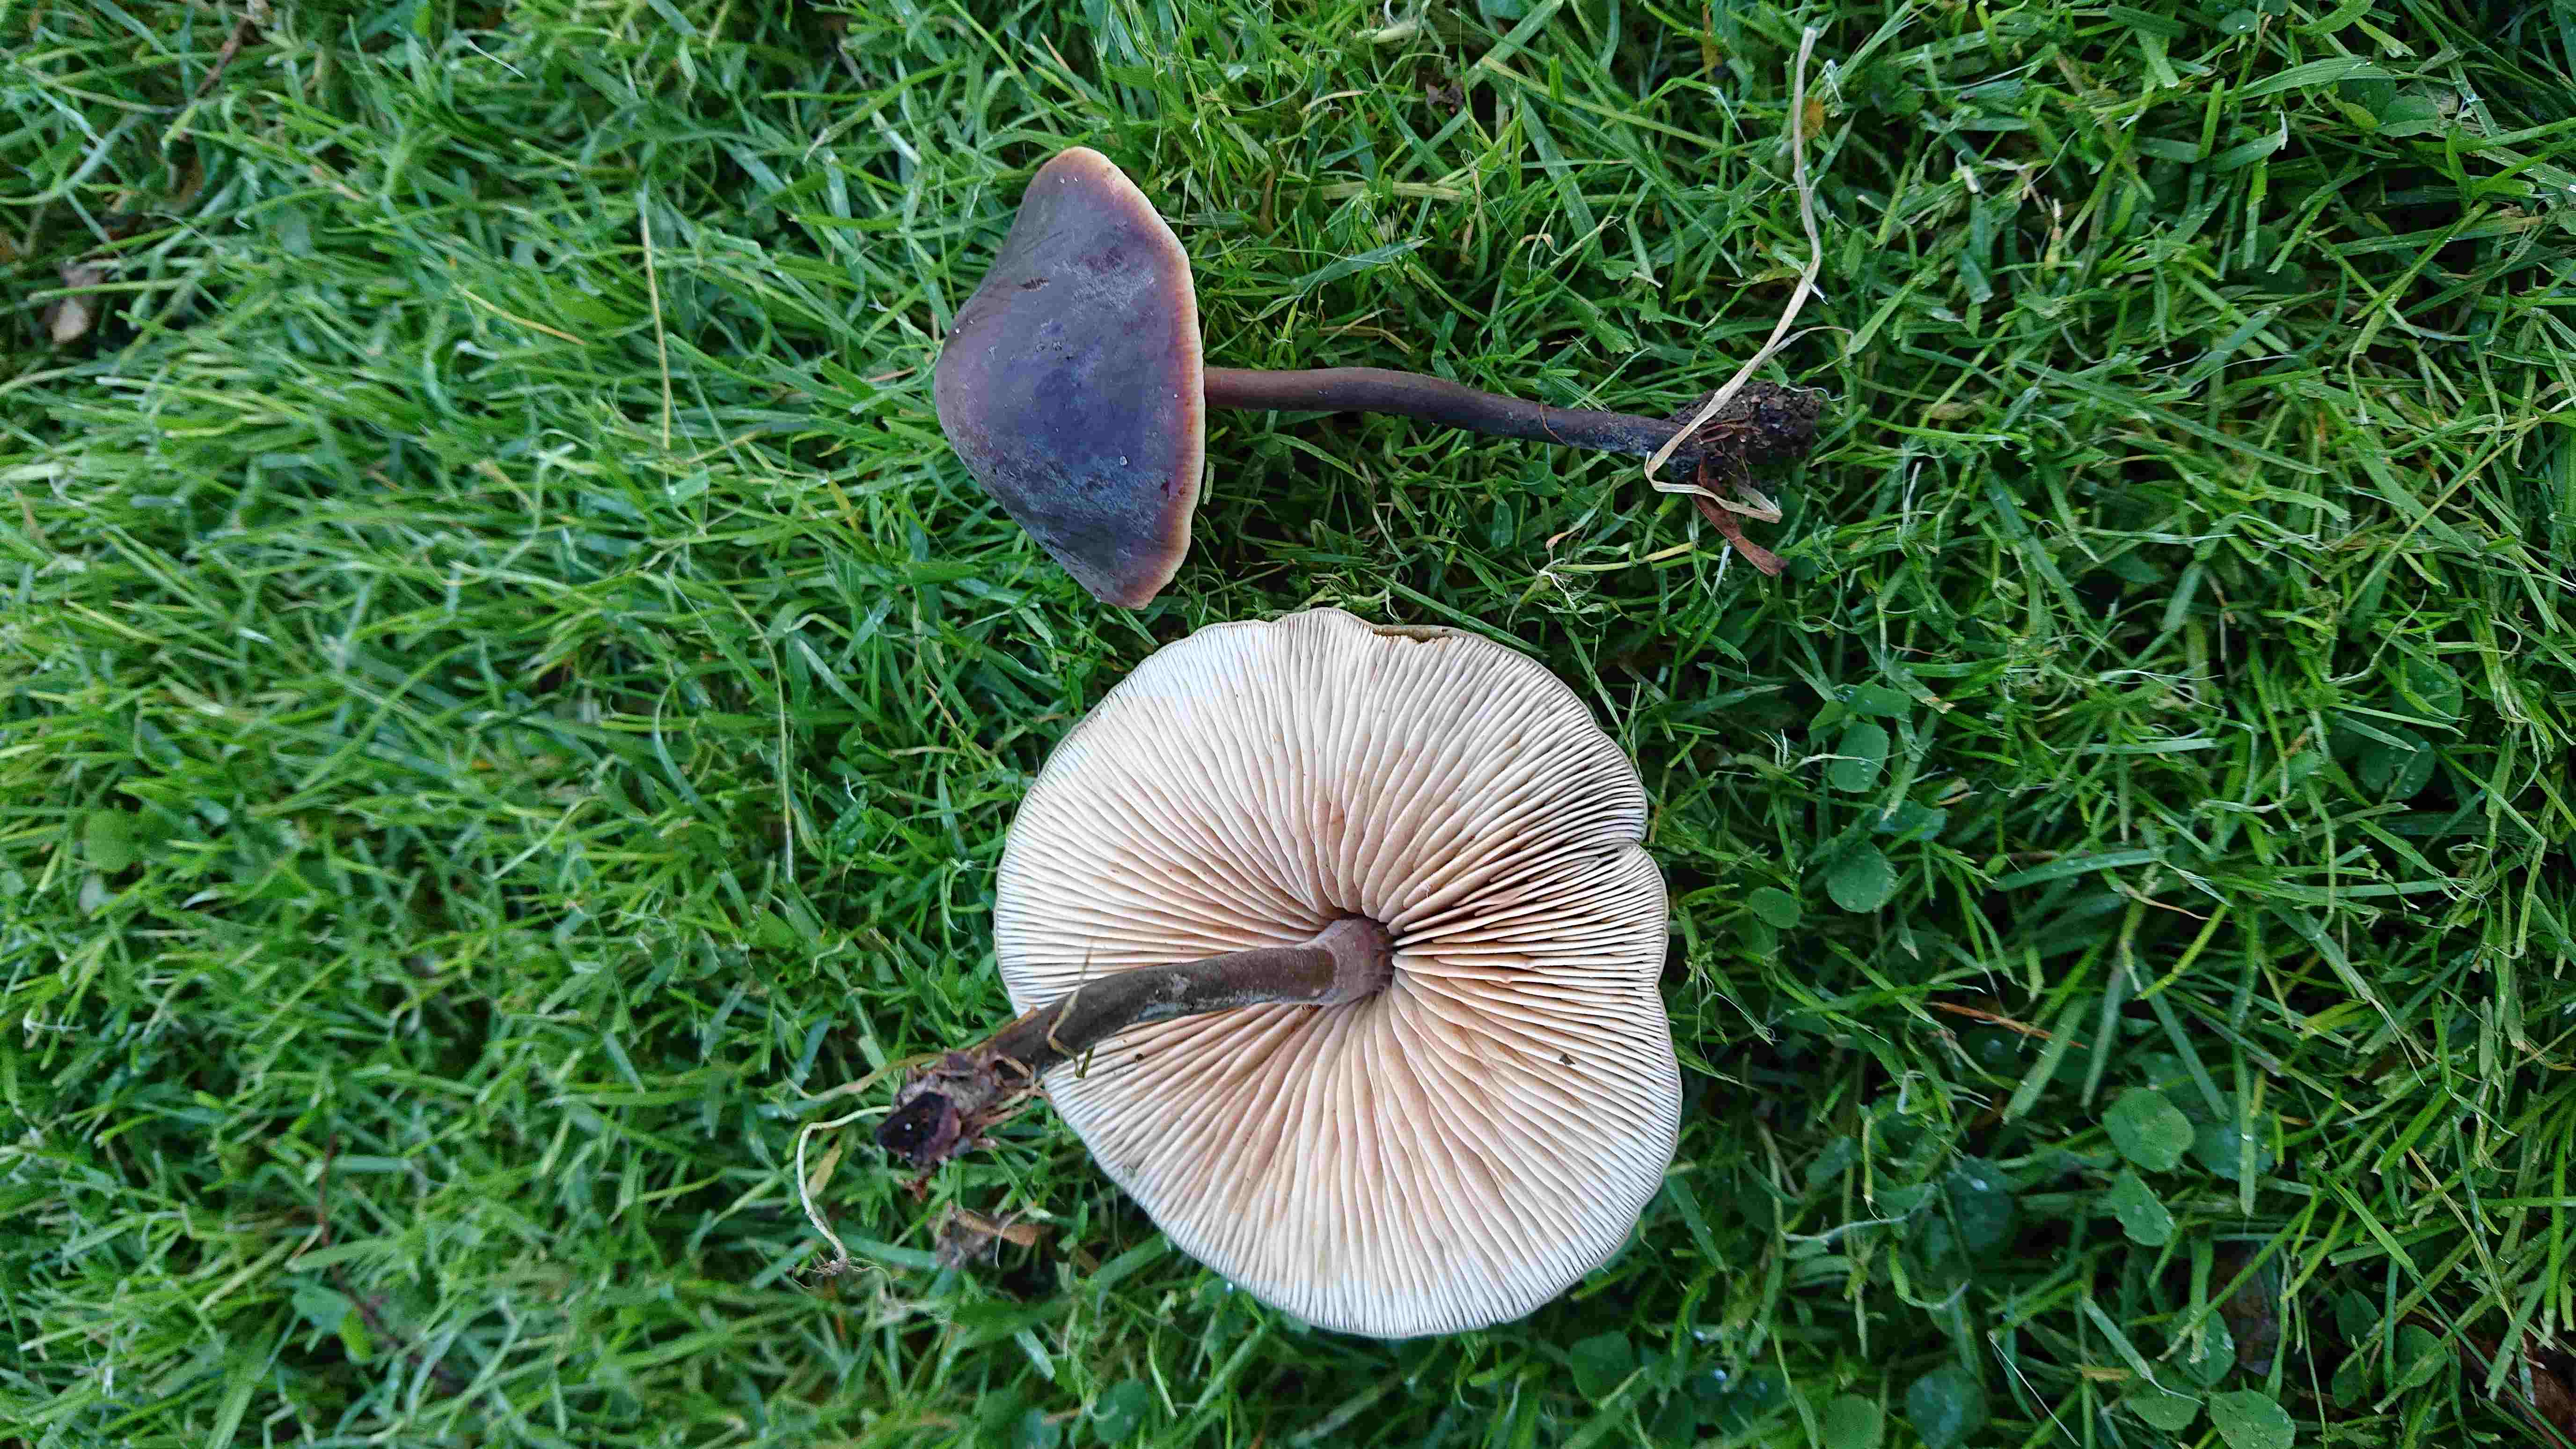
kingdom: Fungi
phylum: Basidiomycota
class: Agaricomycetes
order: Agaricales
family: Macrocystidiaceae
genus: Macrocystidia
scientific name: Macrocystidia cucumis
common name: agurkehat
